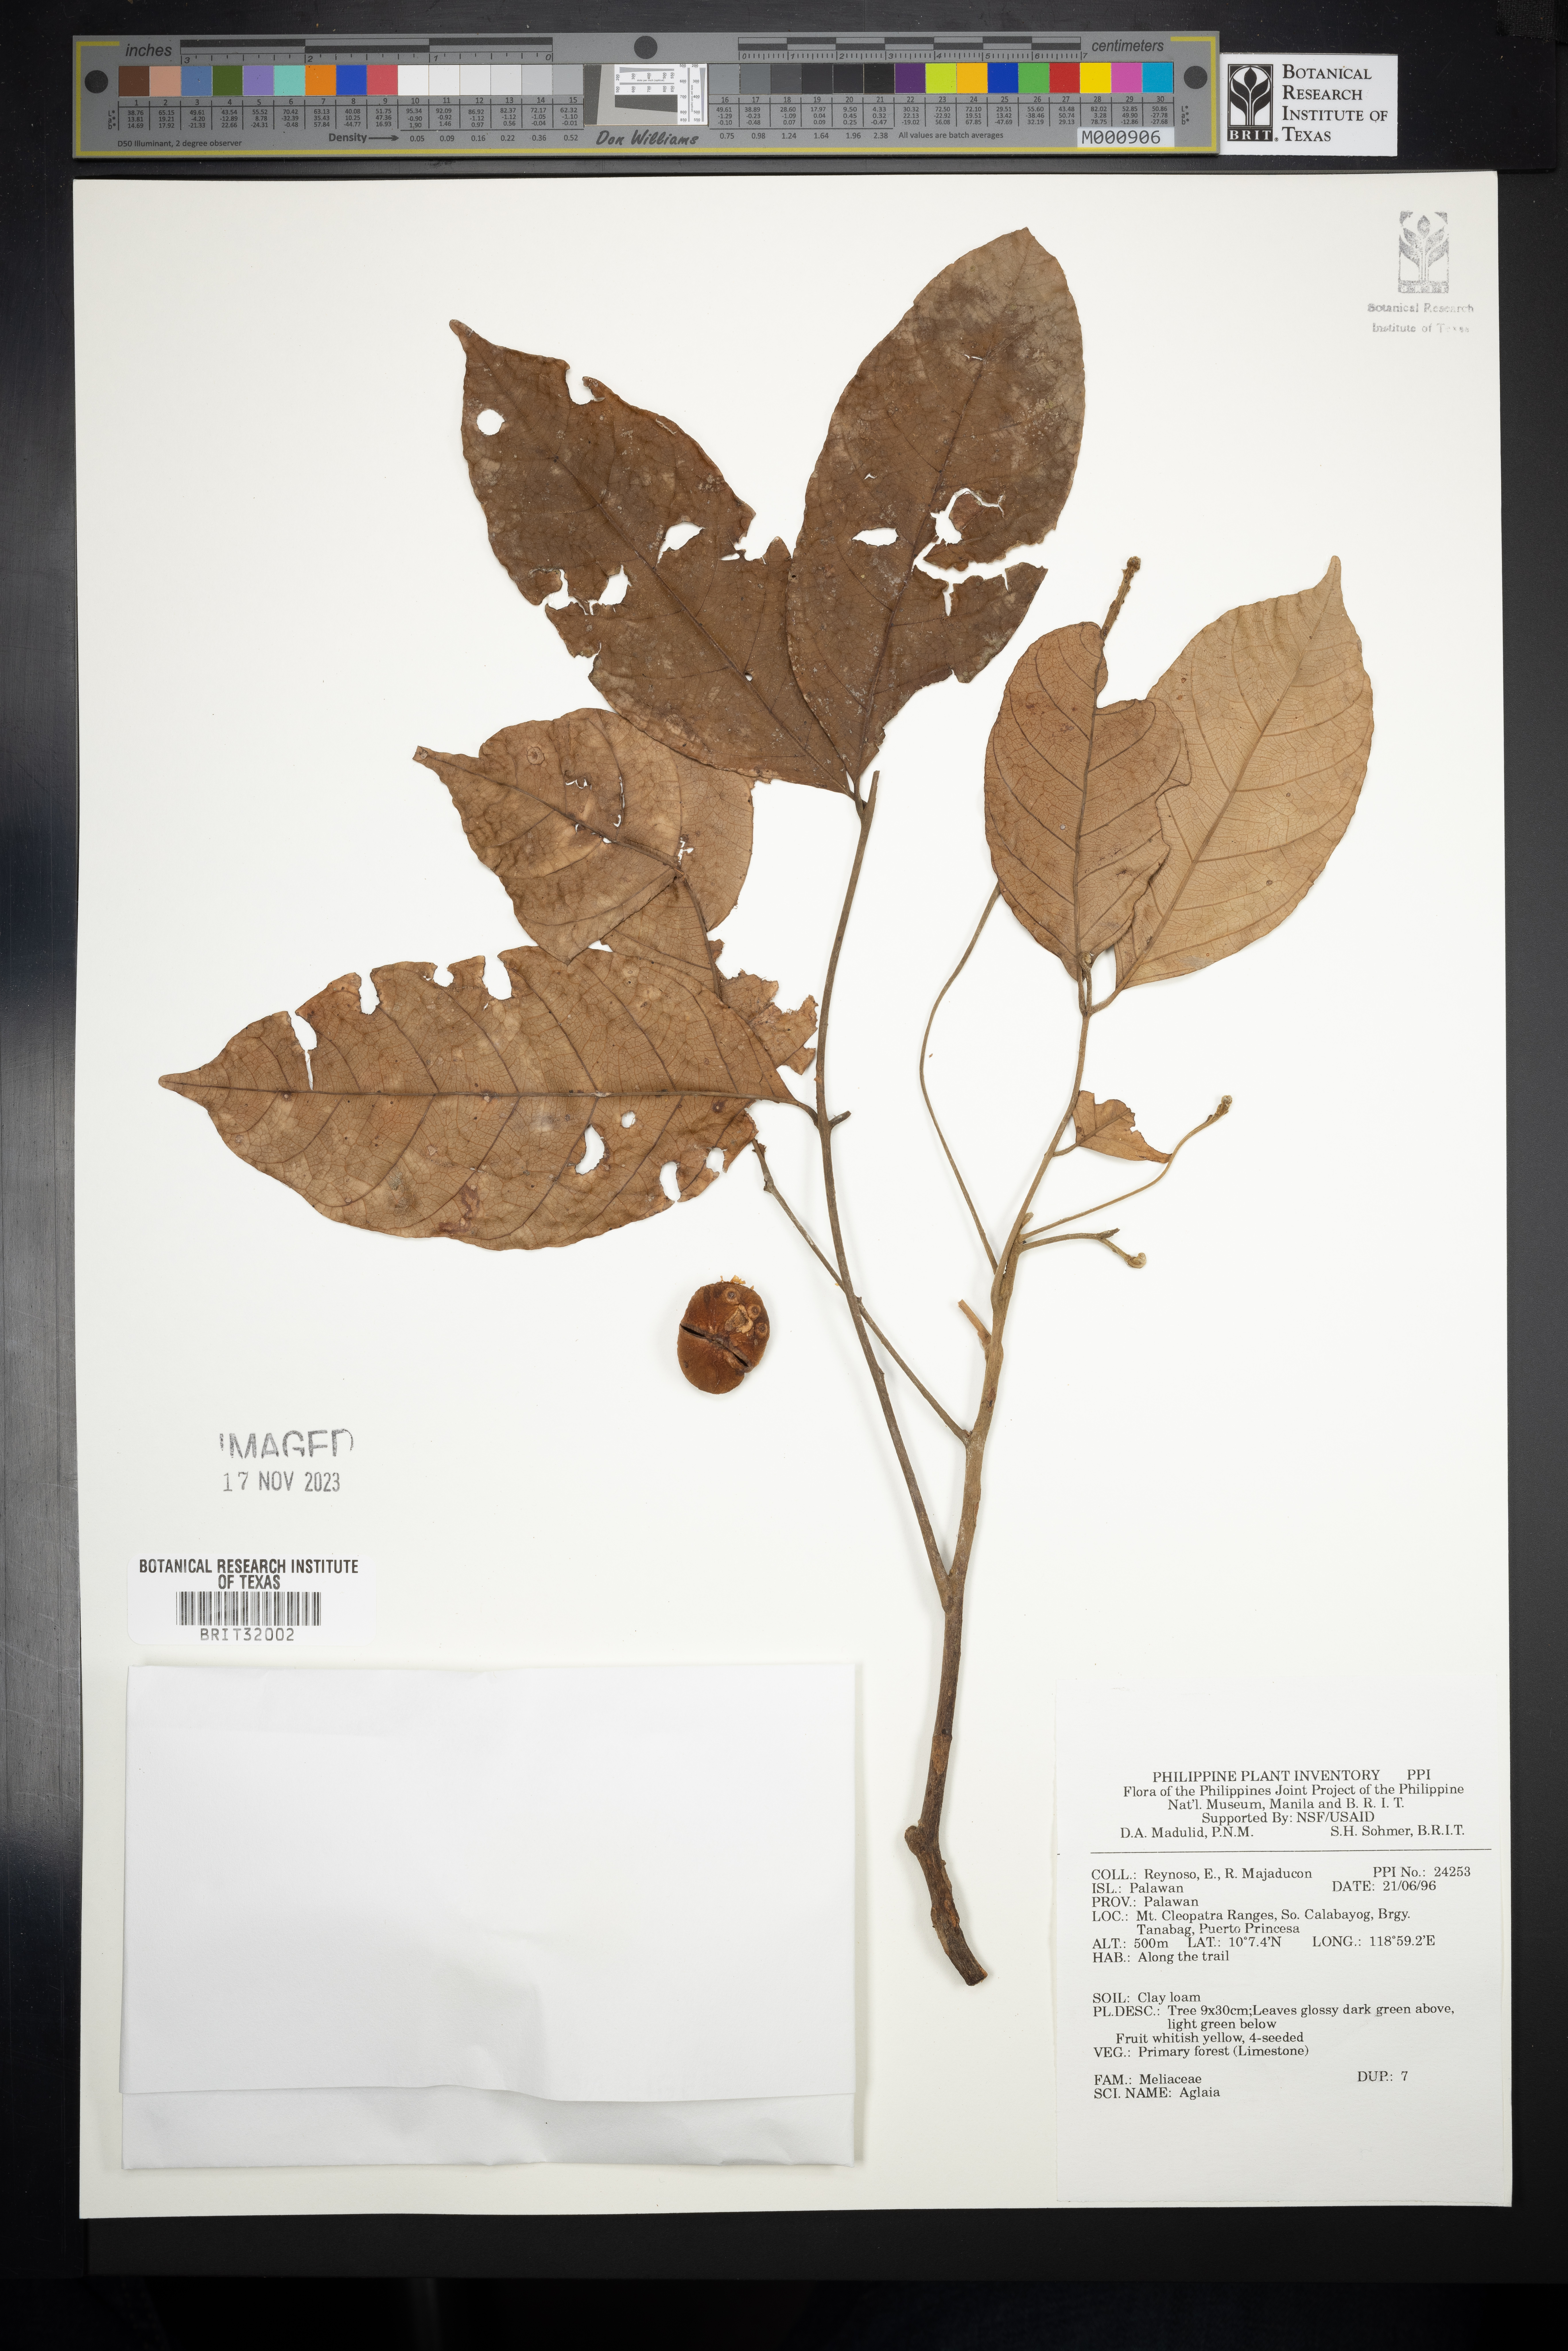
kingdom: Plantae
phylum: Tracheophyta
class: Magnoliopsida
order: Sapindales
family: Meliaceae
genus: Aglaia
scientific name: Aglaia
